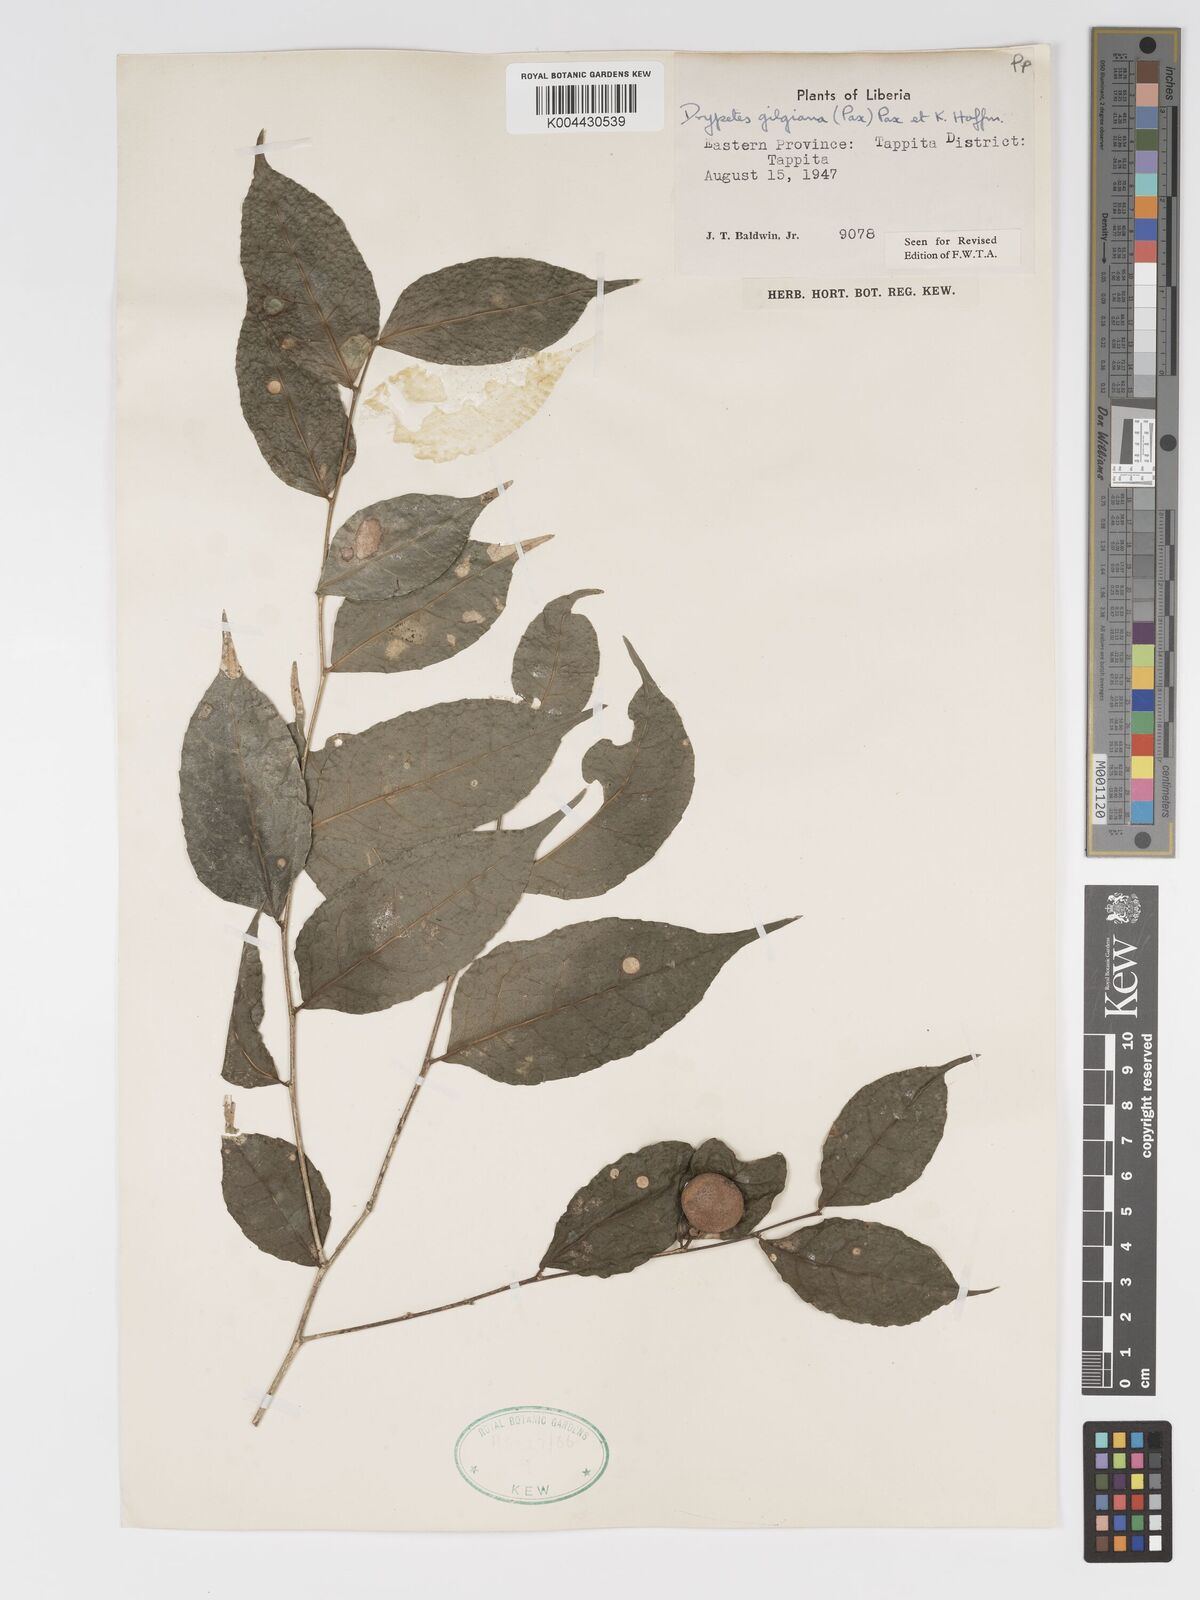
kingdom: Plantae
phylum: Tracheophyta
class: Magnoliopsida
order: Malpighiales
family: Putranjivaceae
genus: Drypetes
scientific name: Drypetes gilgiana
